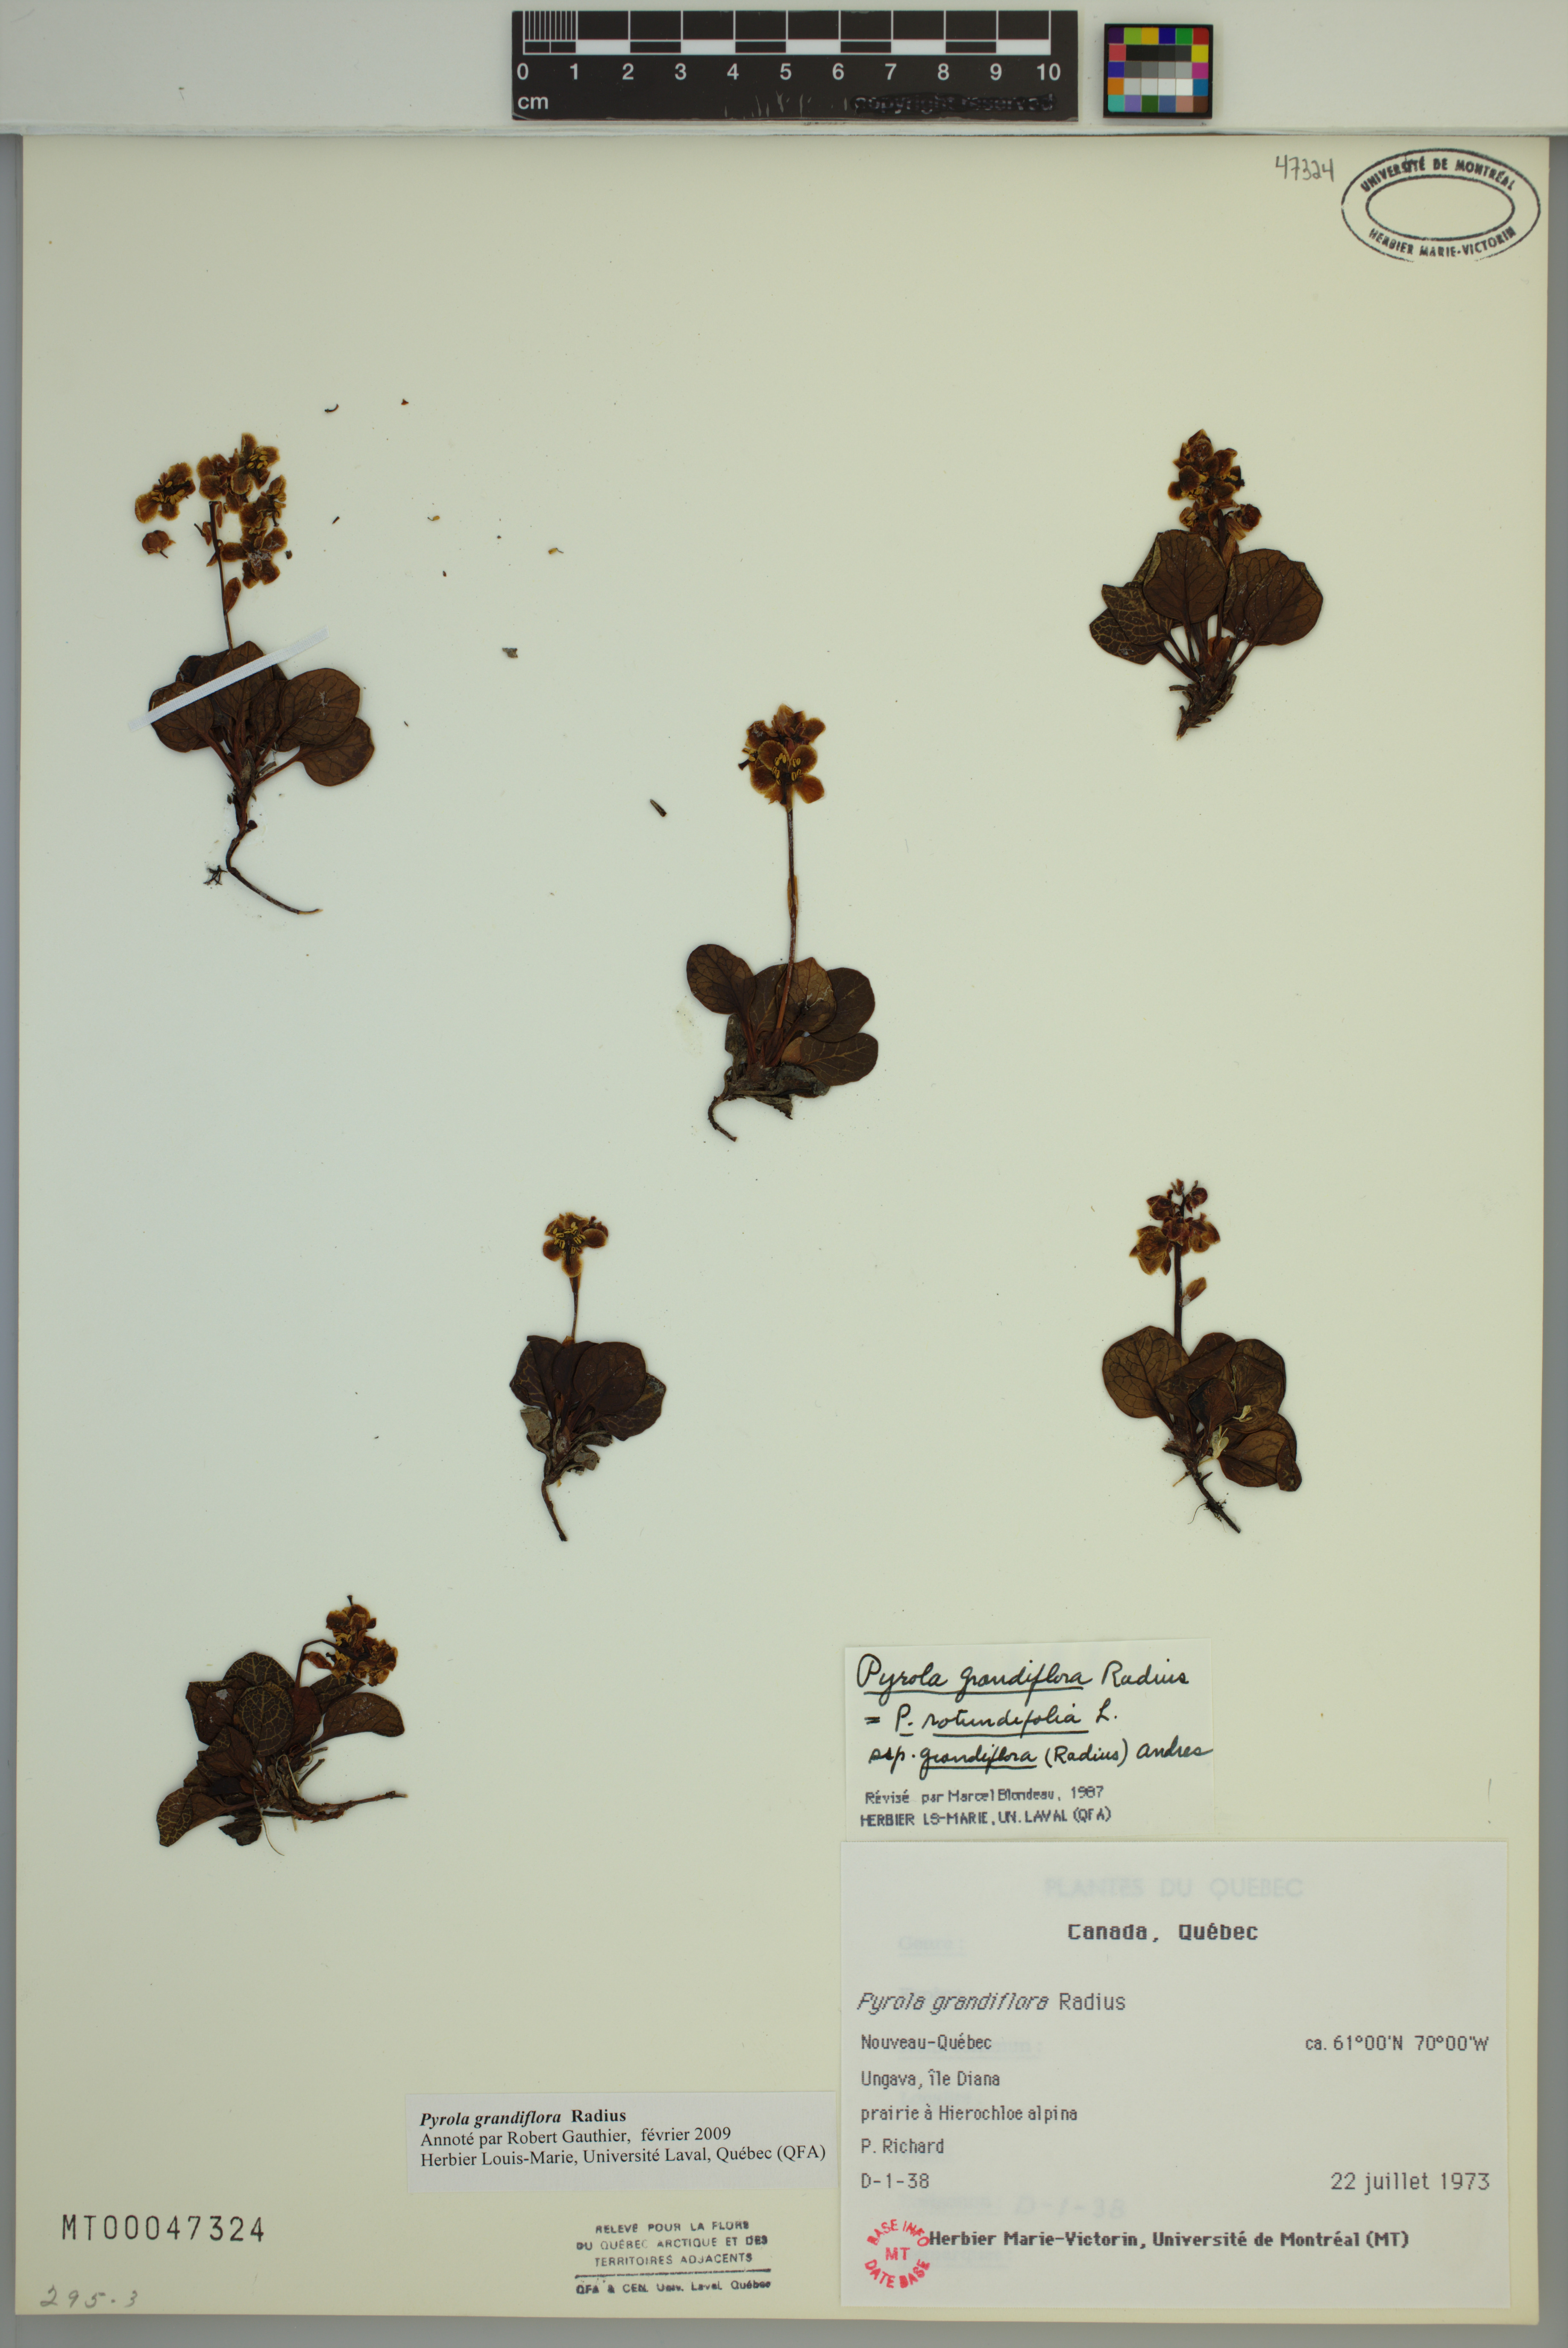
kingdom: Plantae
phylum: Tracheophyta
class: Magnoliopsida
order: Ericales
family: Ericaceae
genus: Pyrola
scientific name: Pyrola grandiflora
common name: Arctic pyrola
